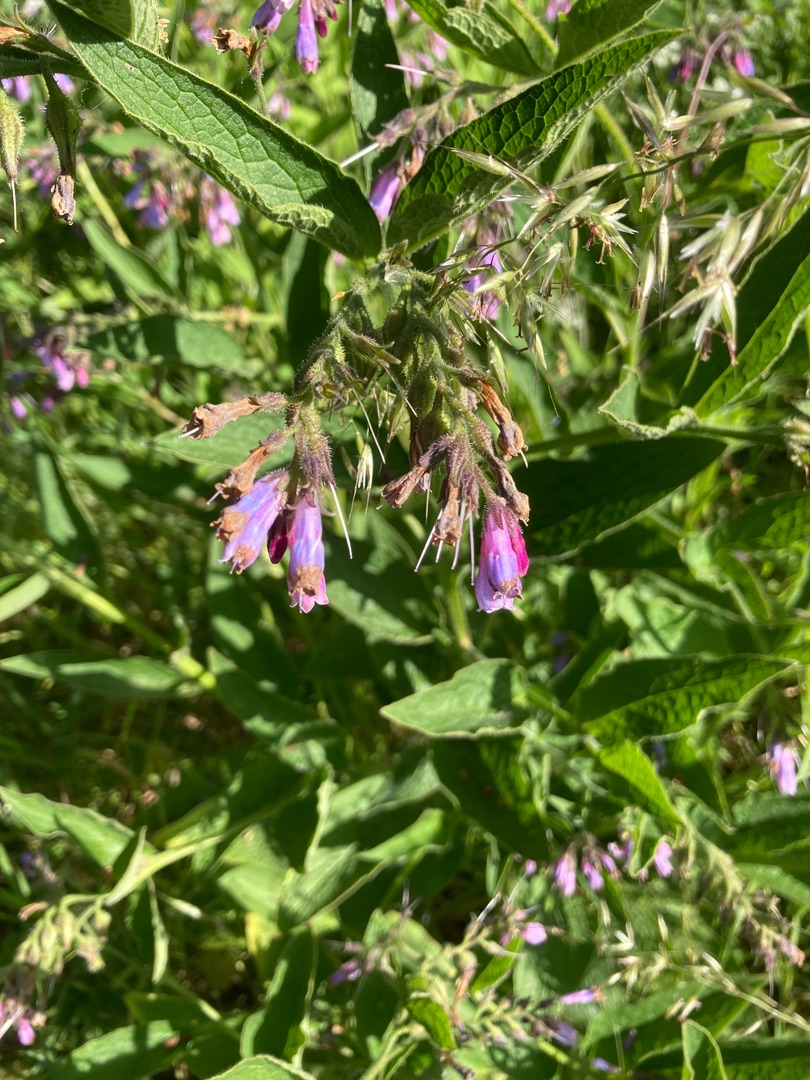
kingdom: Plantae
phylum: Tracheophyta
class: Magnoliopsida
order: Boraginales
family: Boraginaceae
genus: Symphytum
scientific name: Symphytum uplandicum
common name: Foder-kulsukker
